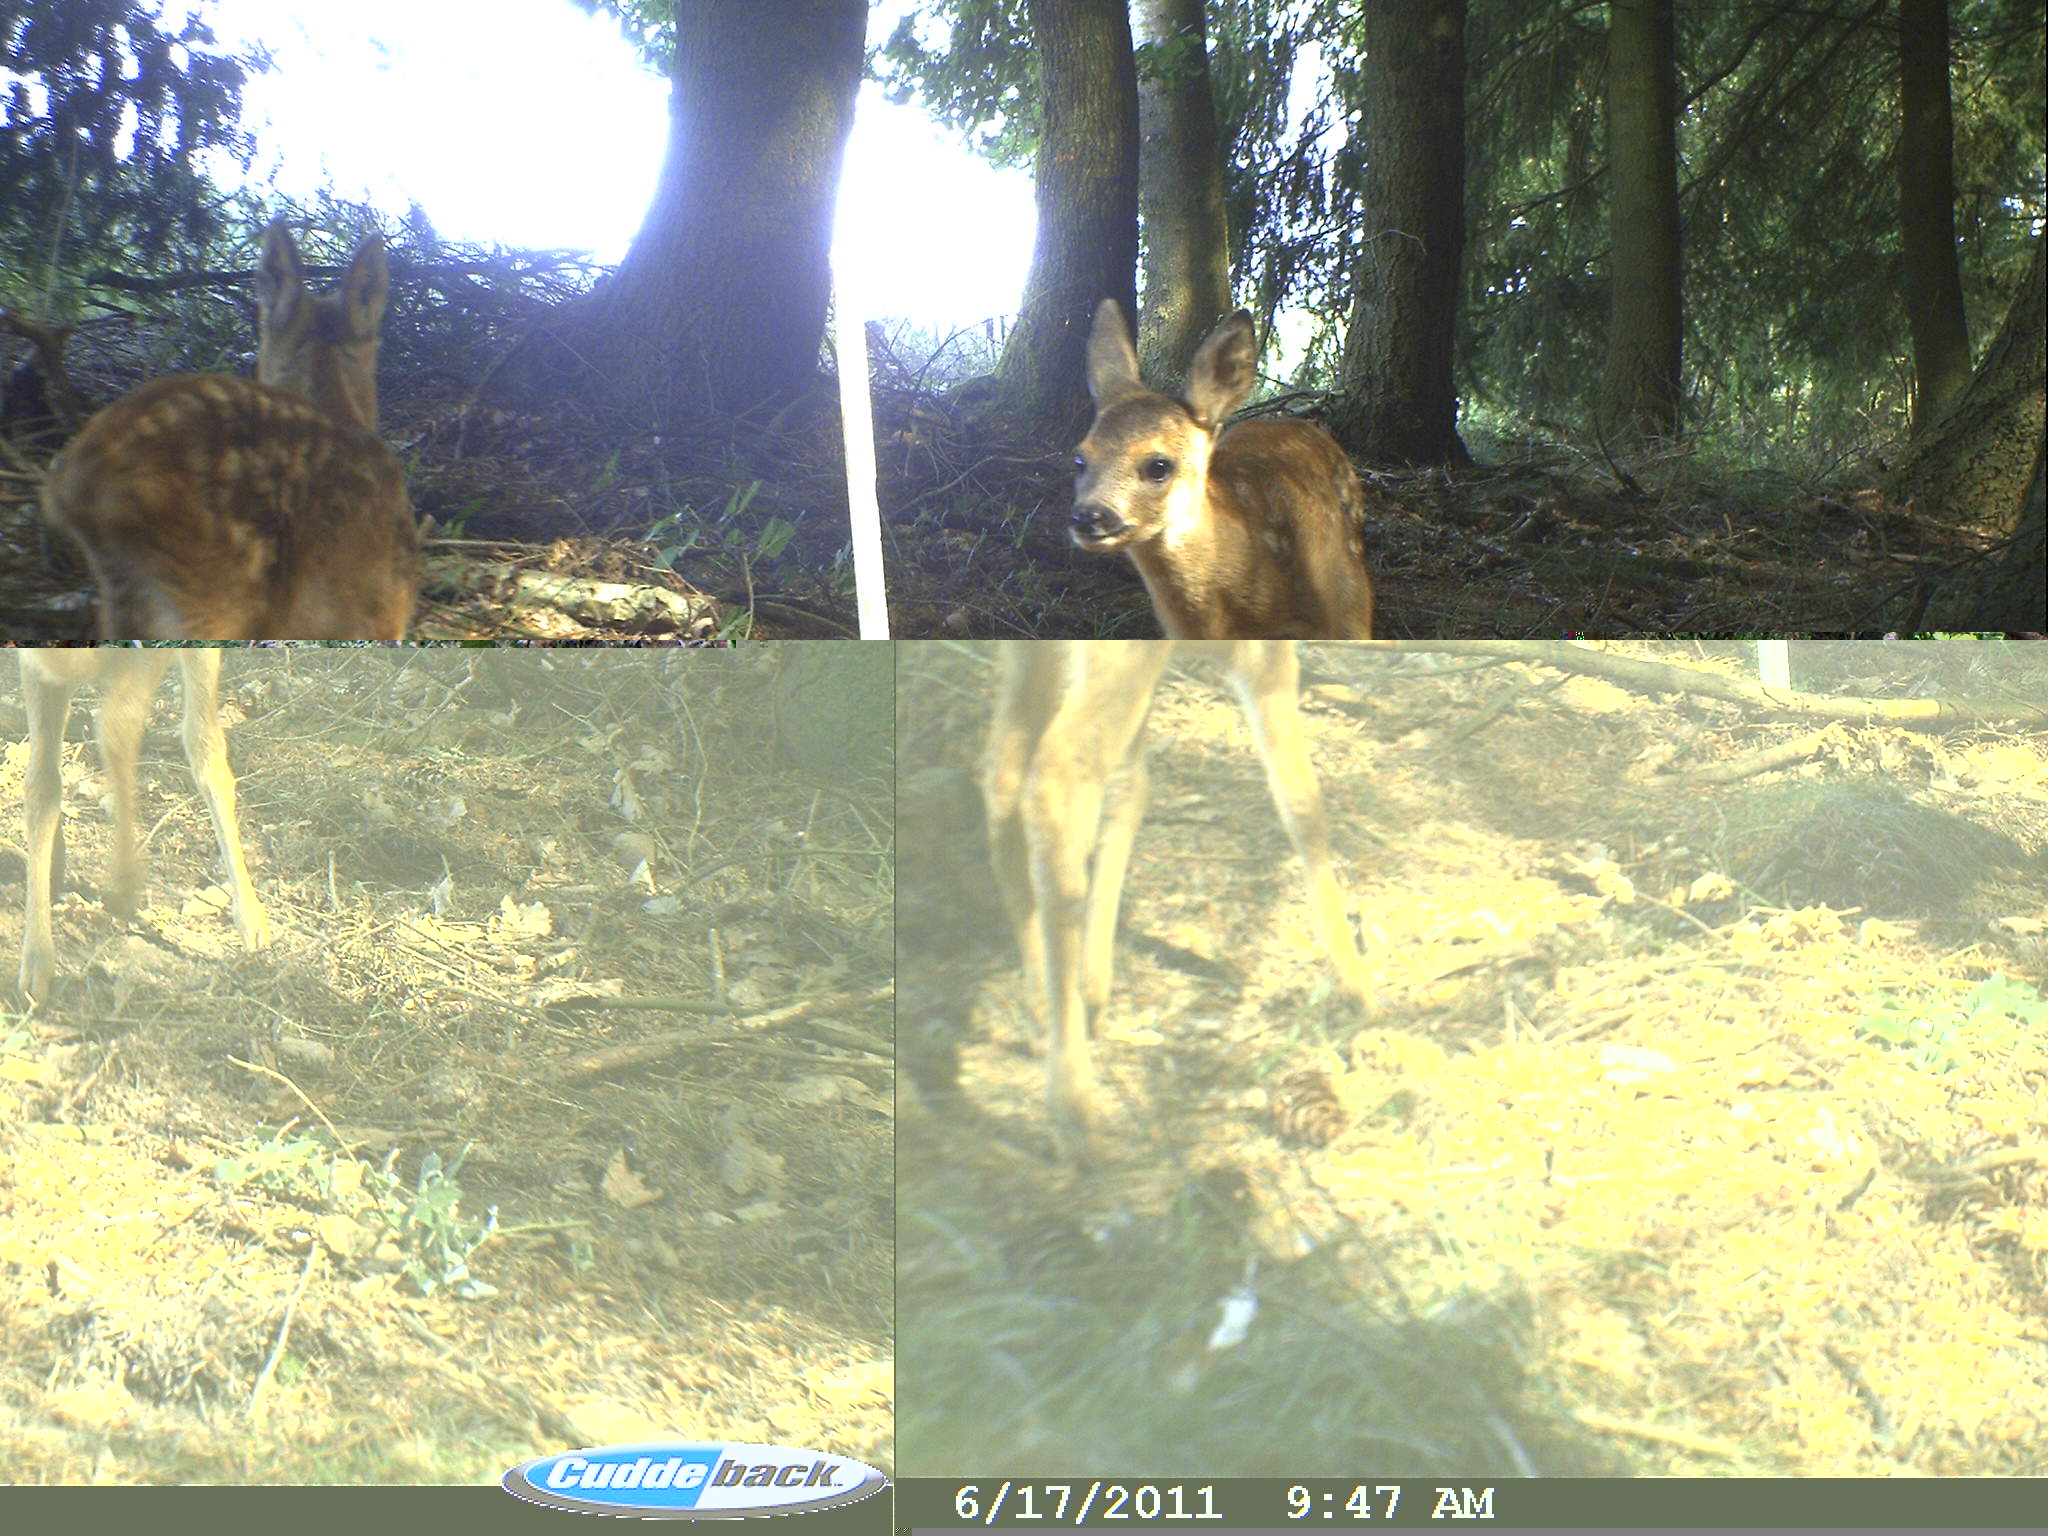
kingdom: Animalia
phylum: Chordata
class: Mammalia
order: Artiodactyla
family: Cervidae
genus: Capreolus
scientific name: Capreolus capreolus
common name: Western roe deer
